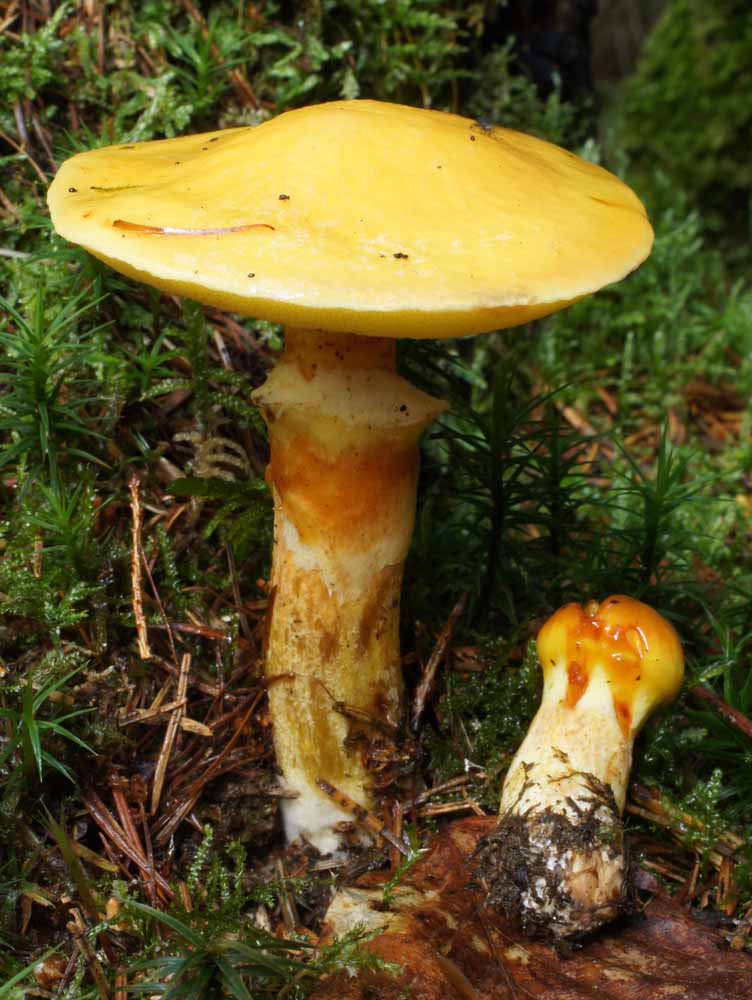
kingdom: Fungi
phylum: Basidiomycota
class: Agaricomycetes
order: Boletales
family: Suillaceae
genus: Suillus
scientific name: Suillus grevillei
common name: lærke-slimrørhat
